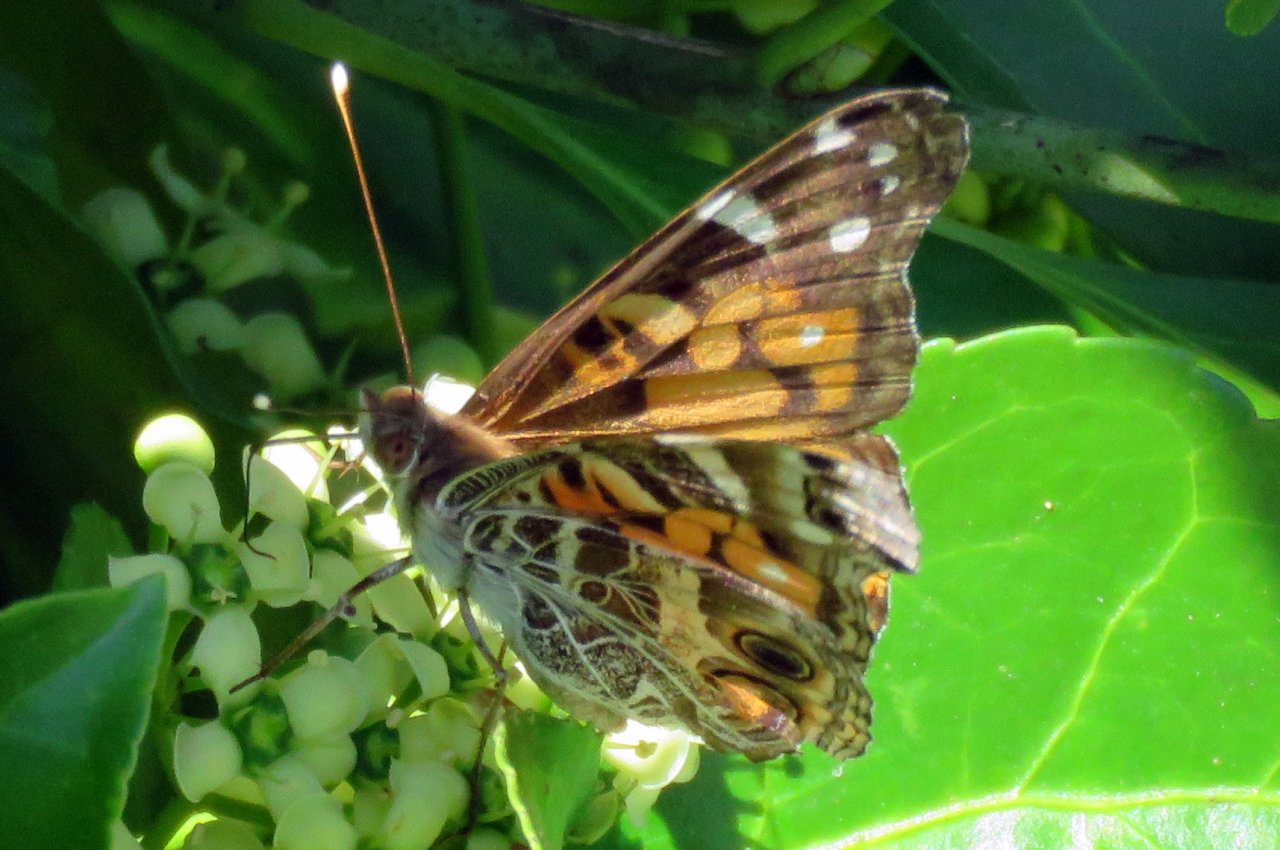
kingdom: Animalia
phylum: Arthropoda
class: Insecta
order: Lepidoptera
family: Nymphalidae
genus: Vanessa
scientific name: Vanessa virginiensis
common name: American Lady
